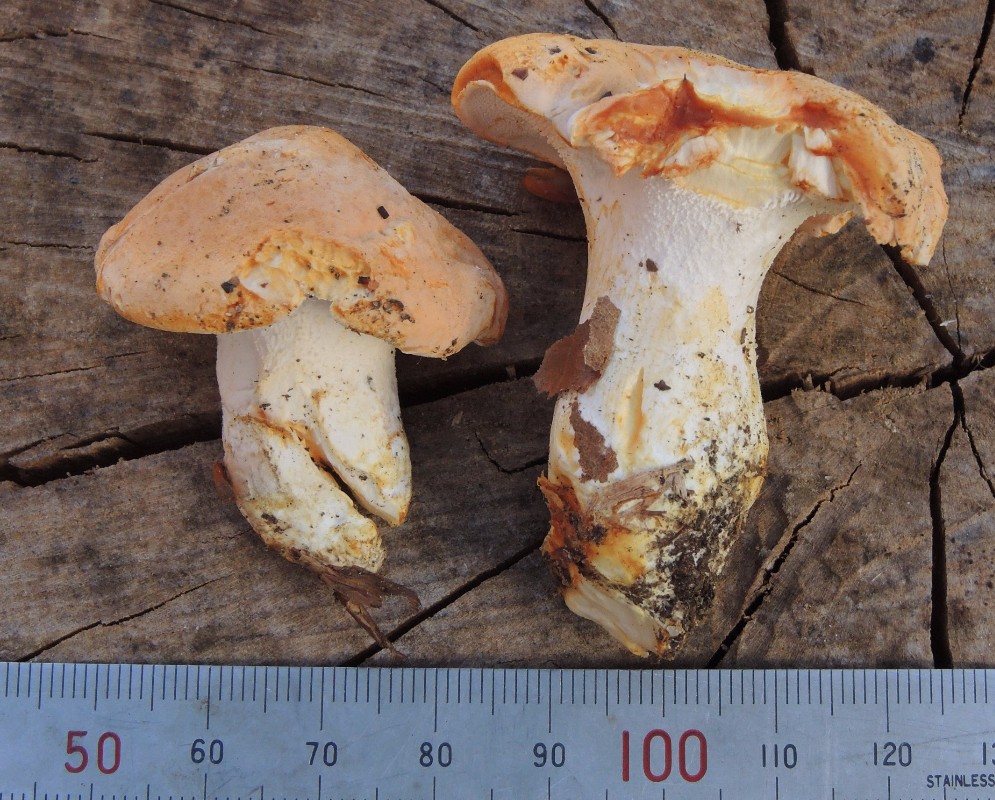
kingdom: Fungi
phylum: Basidiomycota
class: Agaricomycetes
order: Cantharellales
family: Hydnaceae
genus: Hydnum
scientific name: Hydnum rufescens
